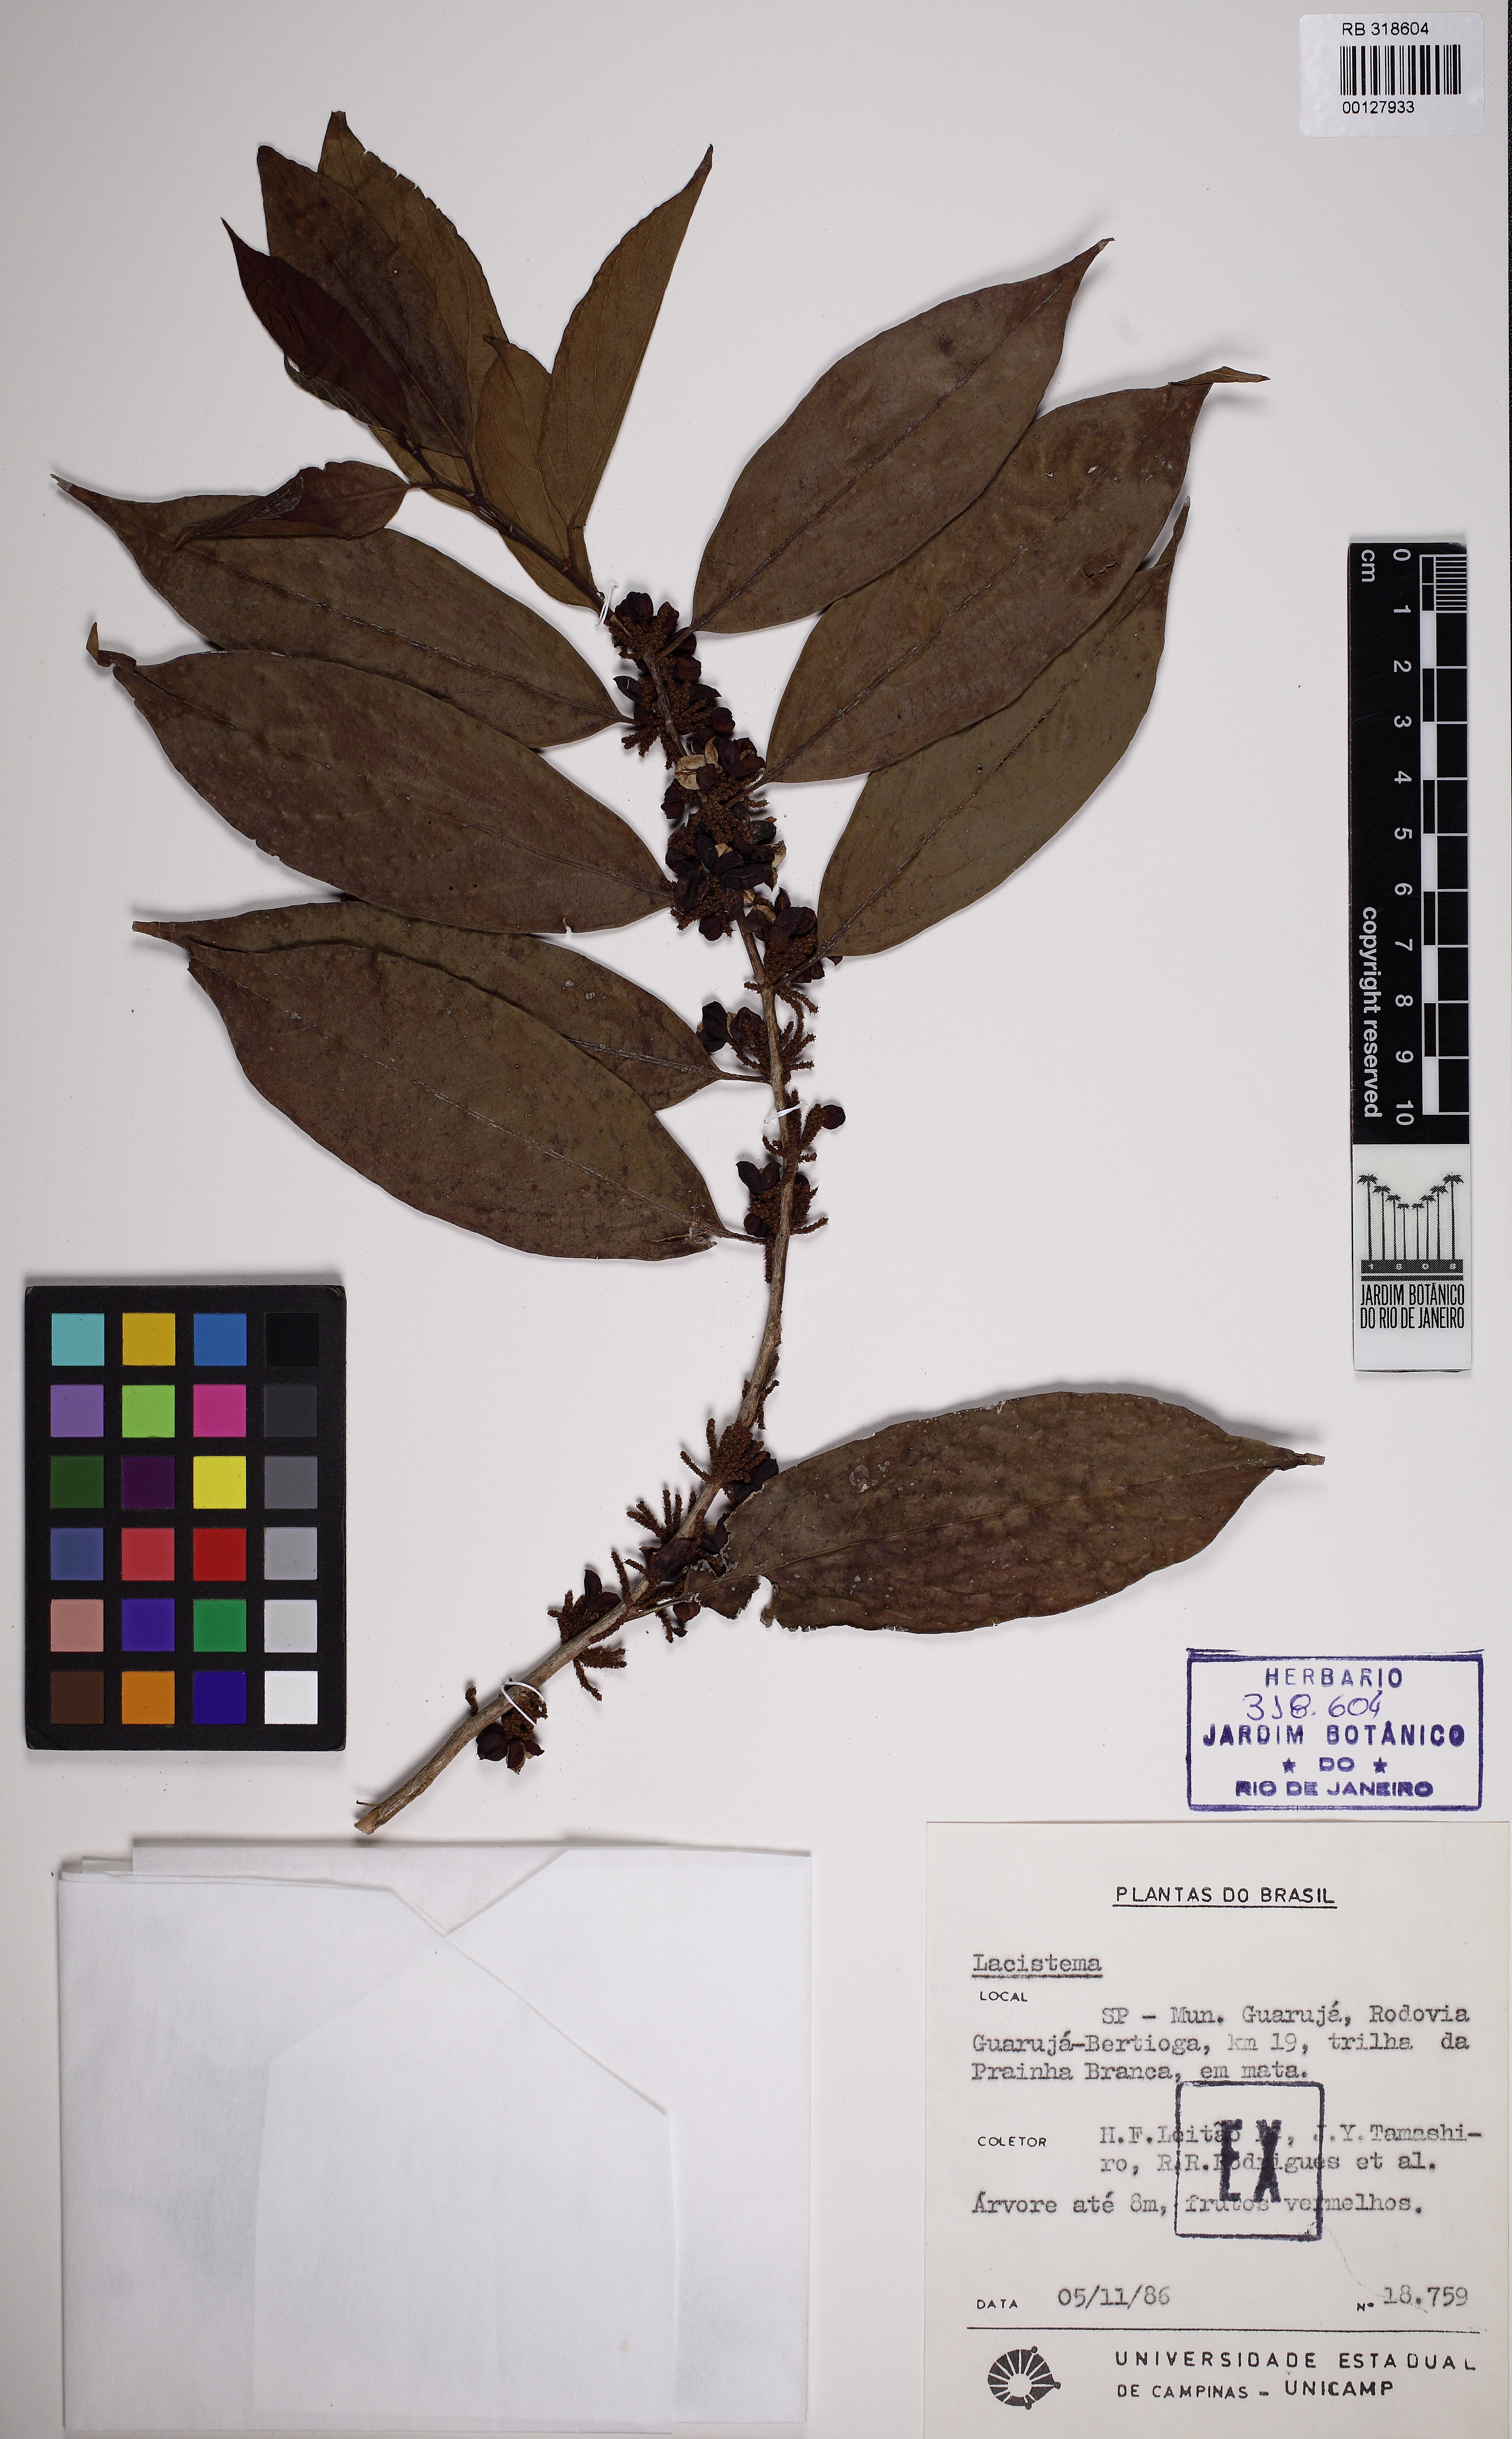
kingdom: Plantae
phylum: Tracheophyta
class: Magnoliopsida
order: Malpighiales
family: Lacistemataceae
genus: Lacistema
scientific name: Lacistema
